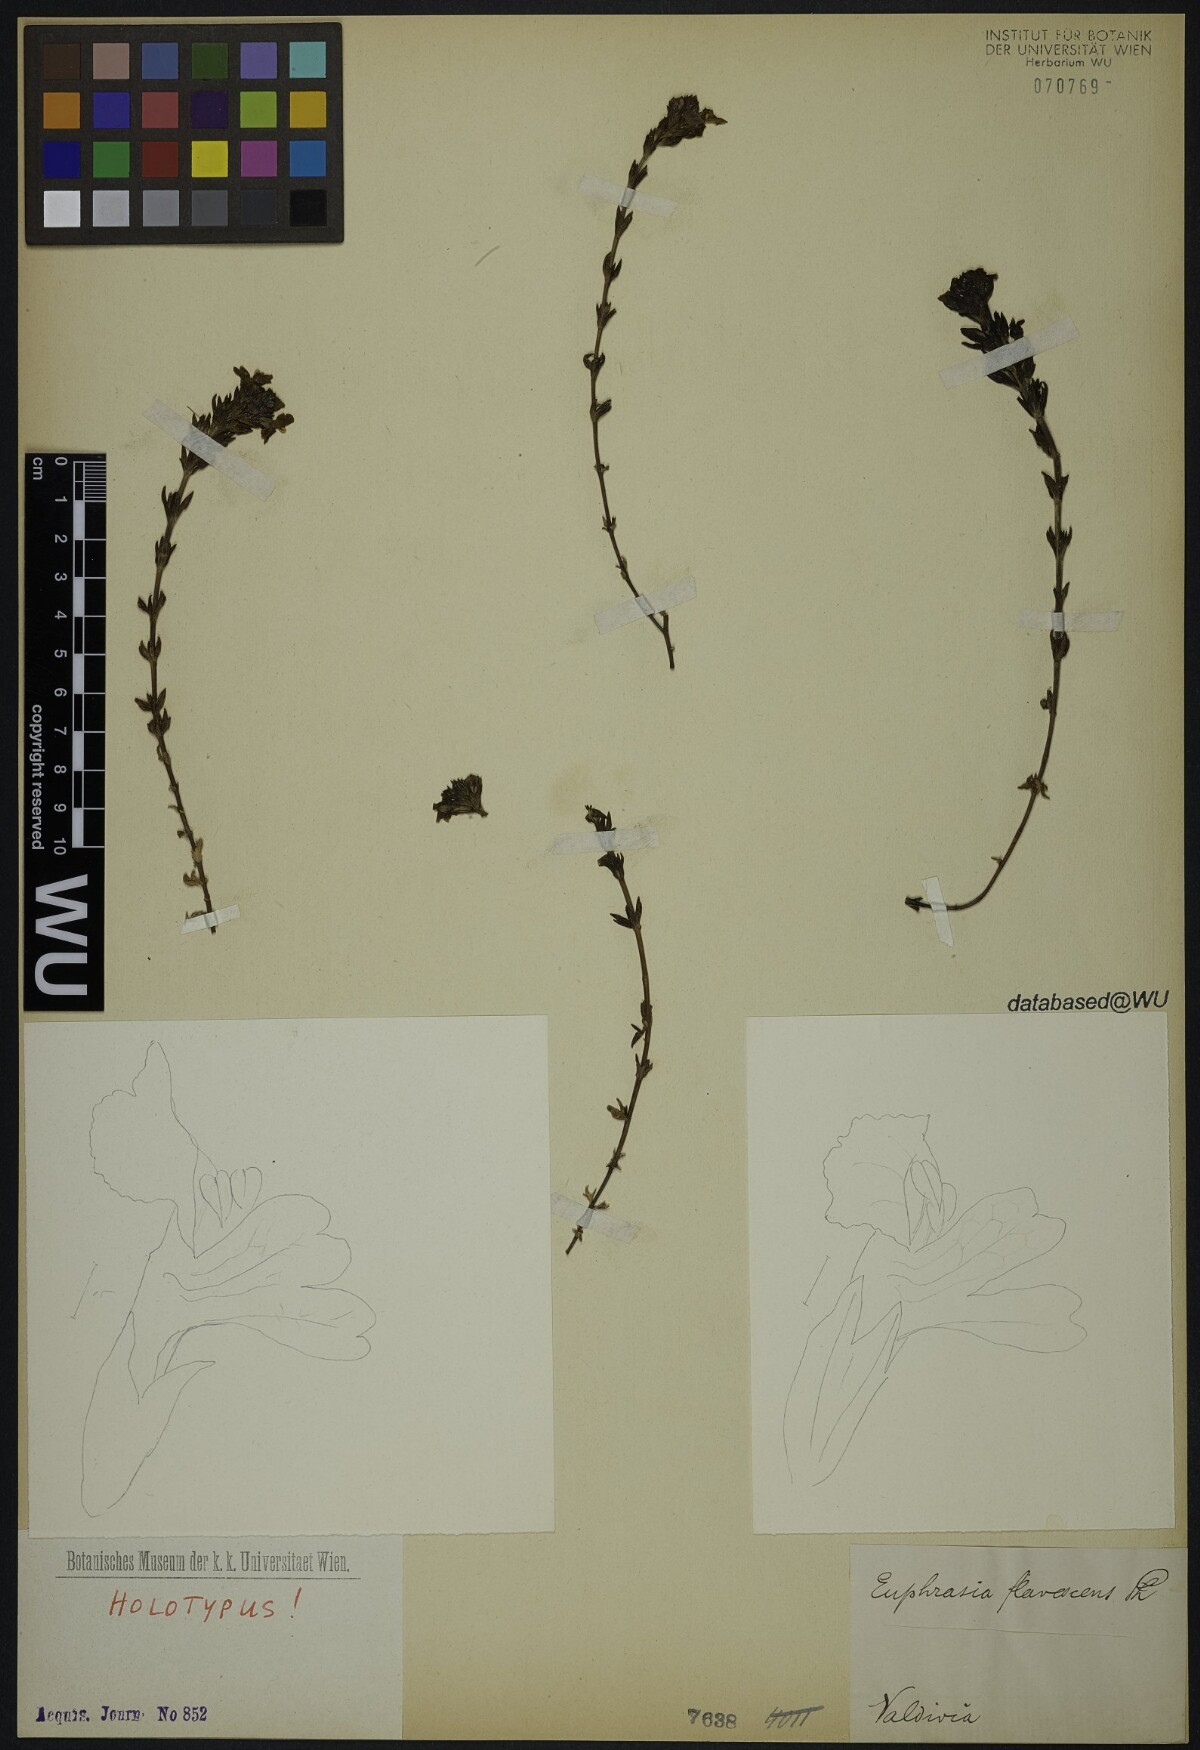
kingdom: Plantae
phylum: Tracheophyta
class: Magnoliopsida
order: Lamiales
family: Orobanchaceae
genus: Euphrasia
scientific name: Euphrasia subexserta
